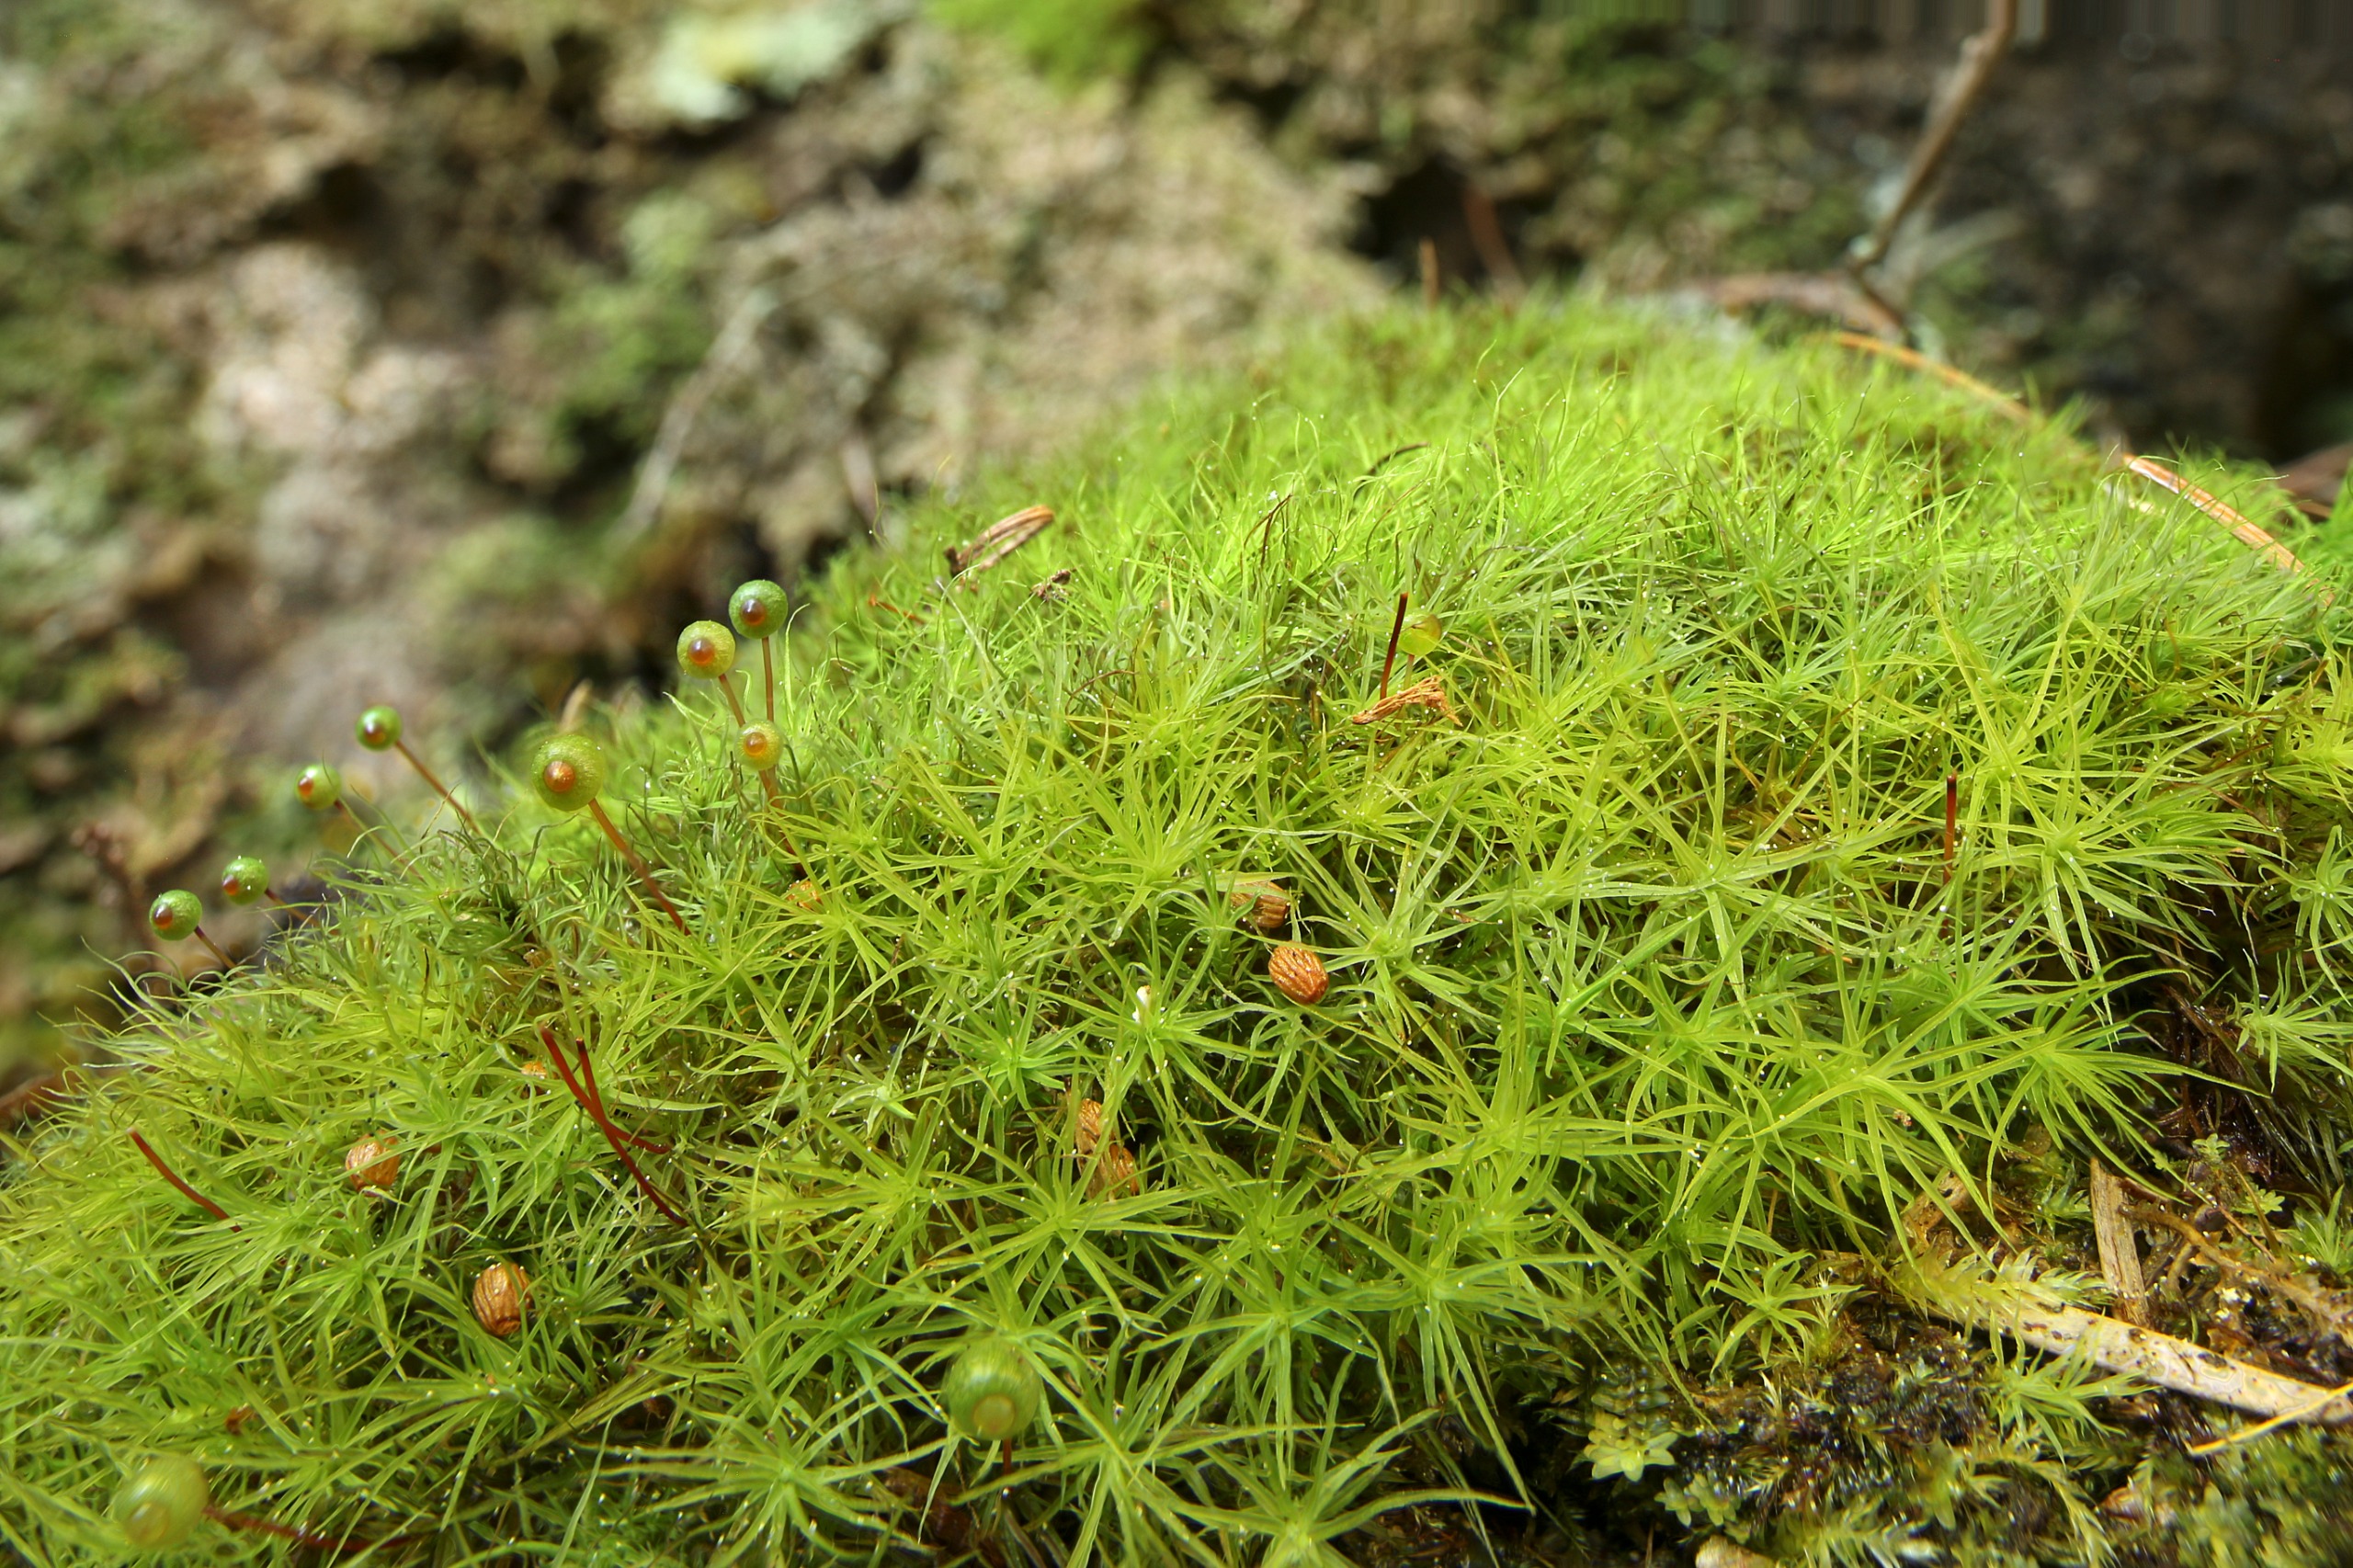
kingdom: Plantae
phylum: Bryophyta
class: Bryopsida
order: Bartramiales
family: Bartramiaceae
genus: Bartramia
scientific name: Bartramia ithyphylla
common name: Blågrøn kuglekapsel
